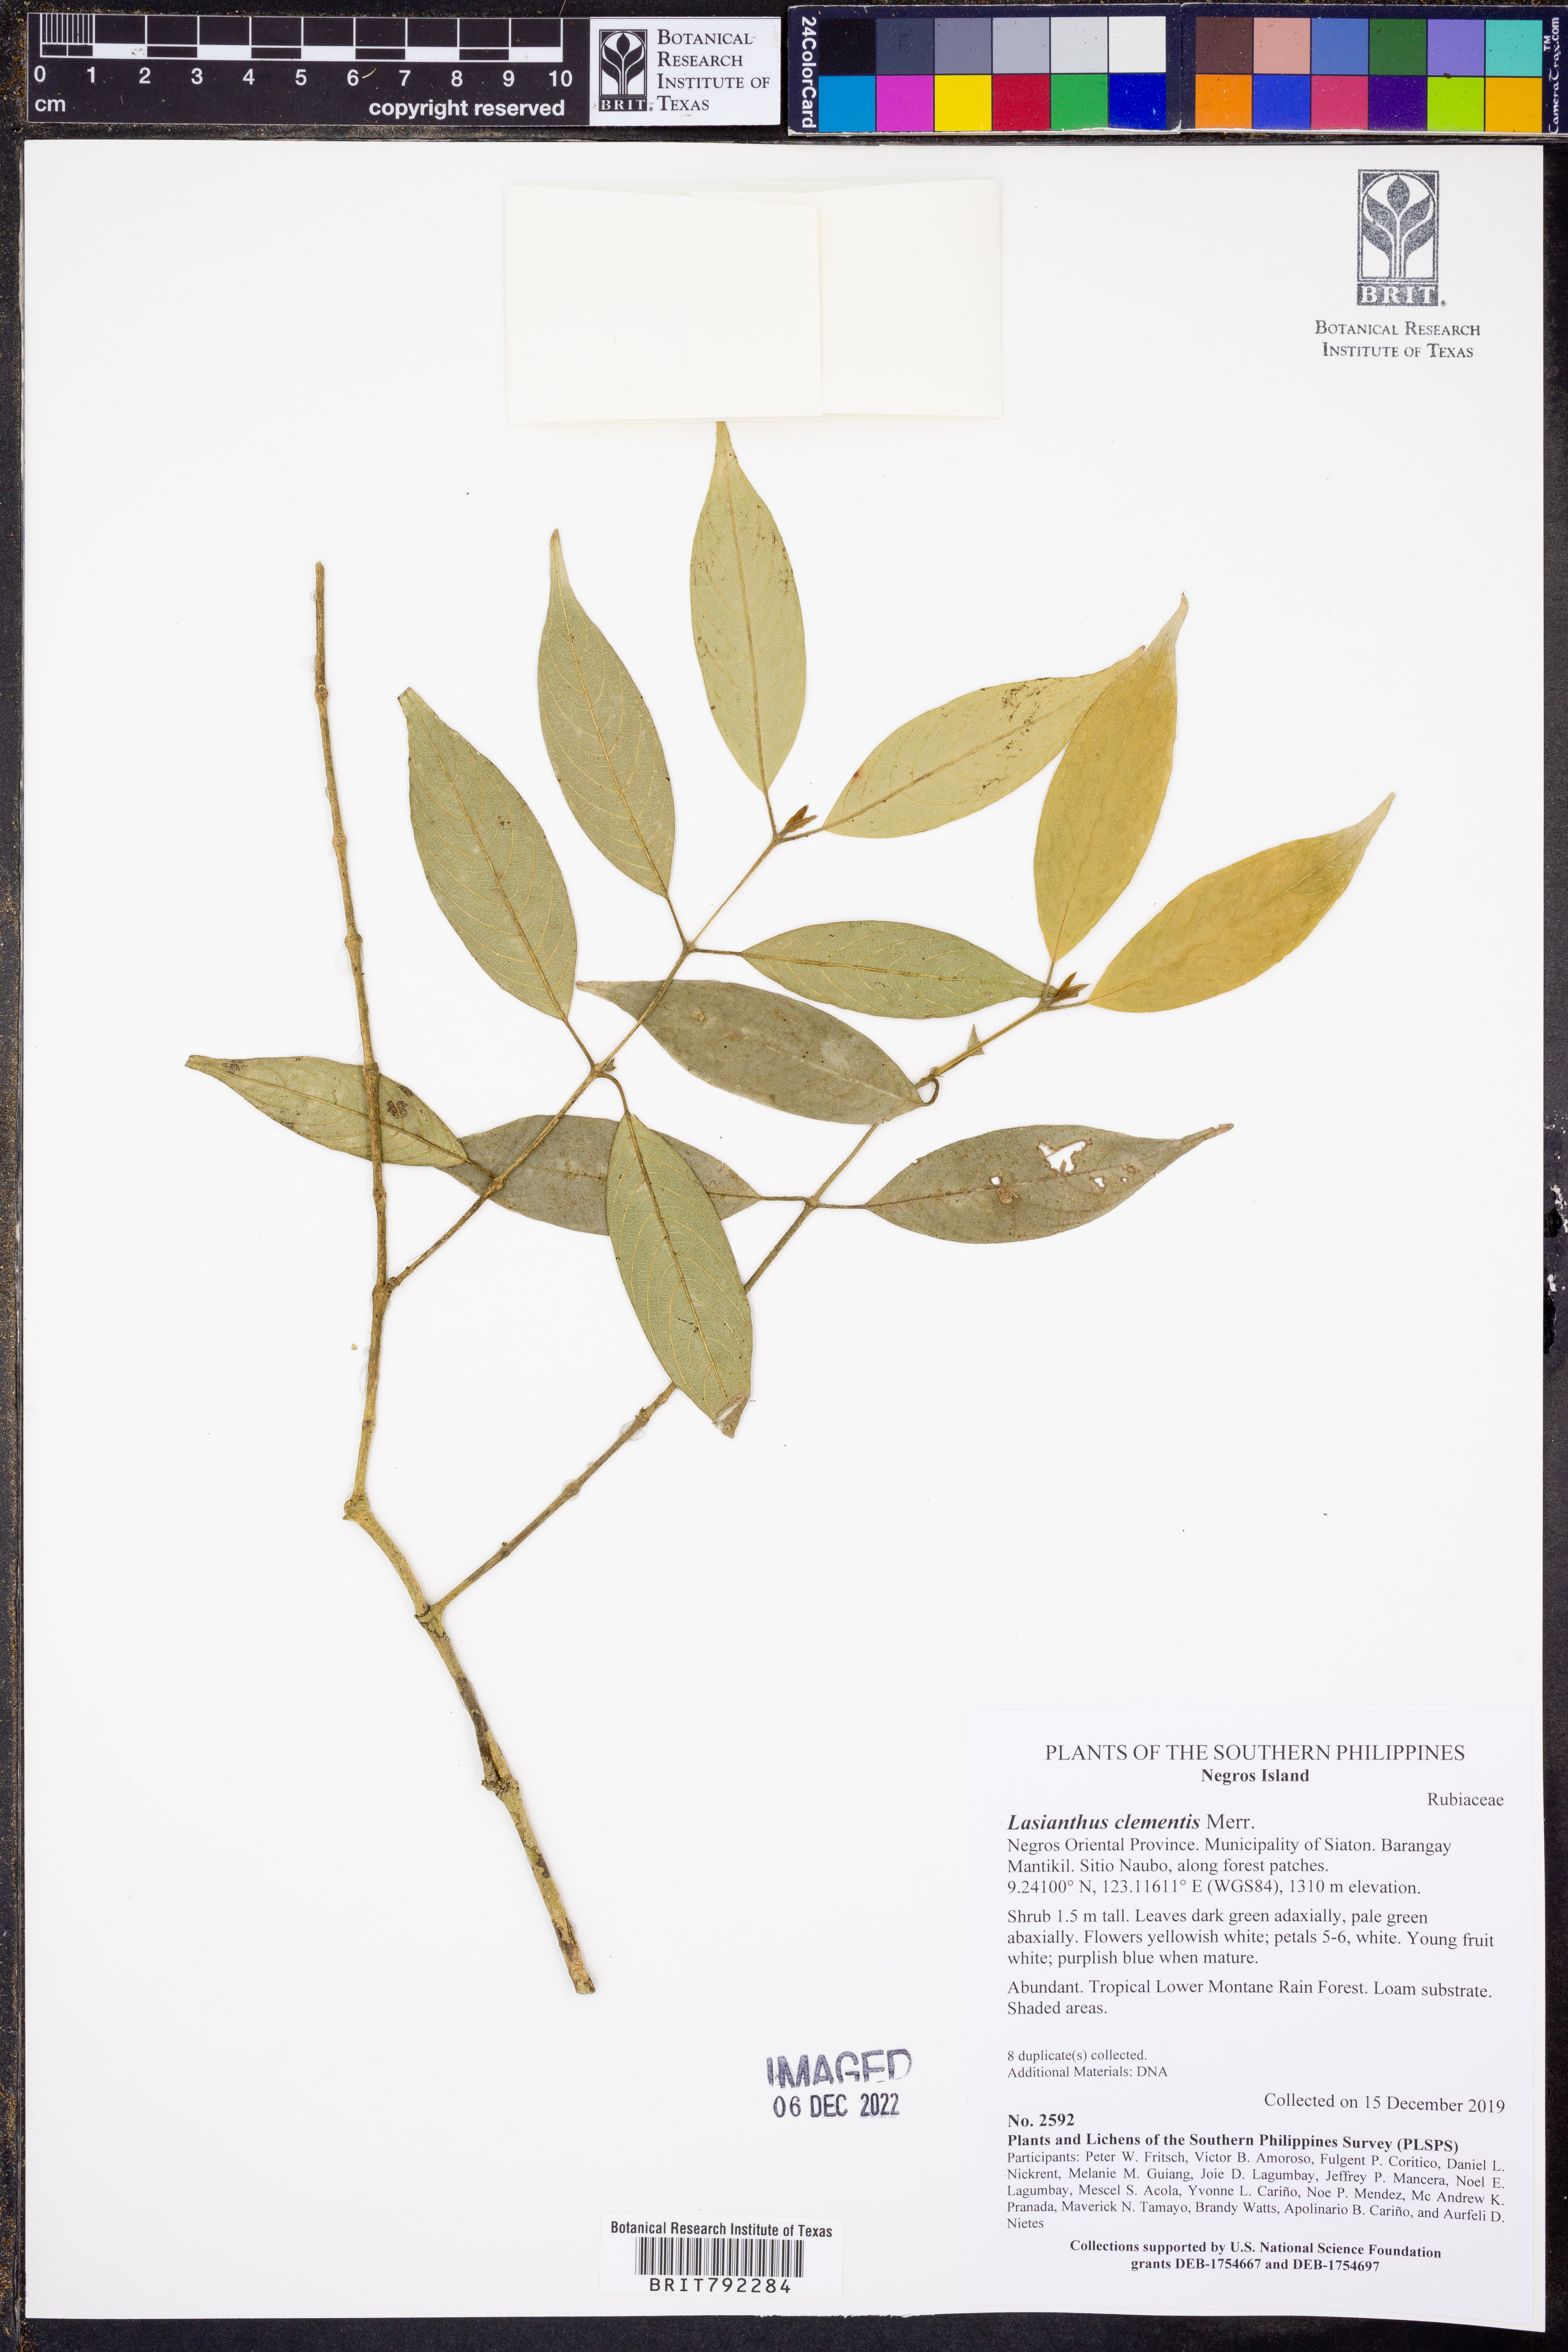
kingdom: Plantae
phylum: Tracheophyta
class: Magnoliopsida
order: Gentianales
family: Rubiaceae
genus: Lasianthus
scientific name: Lasianthus clementis
